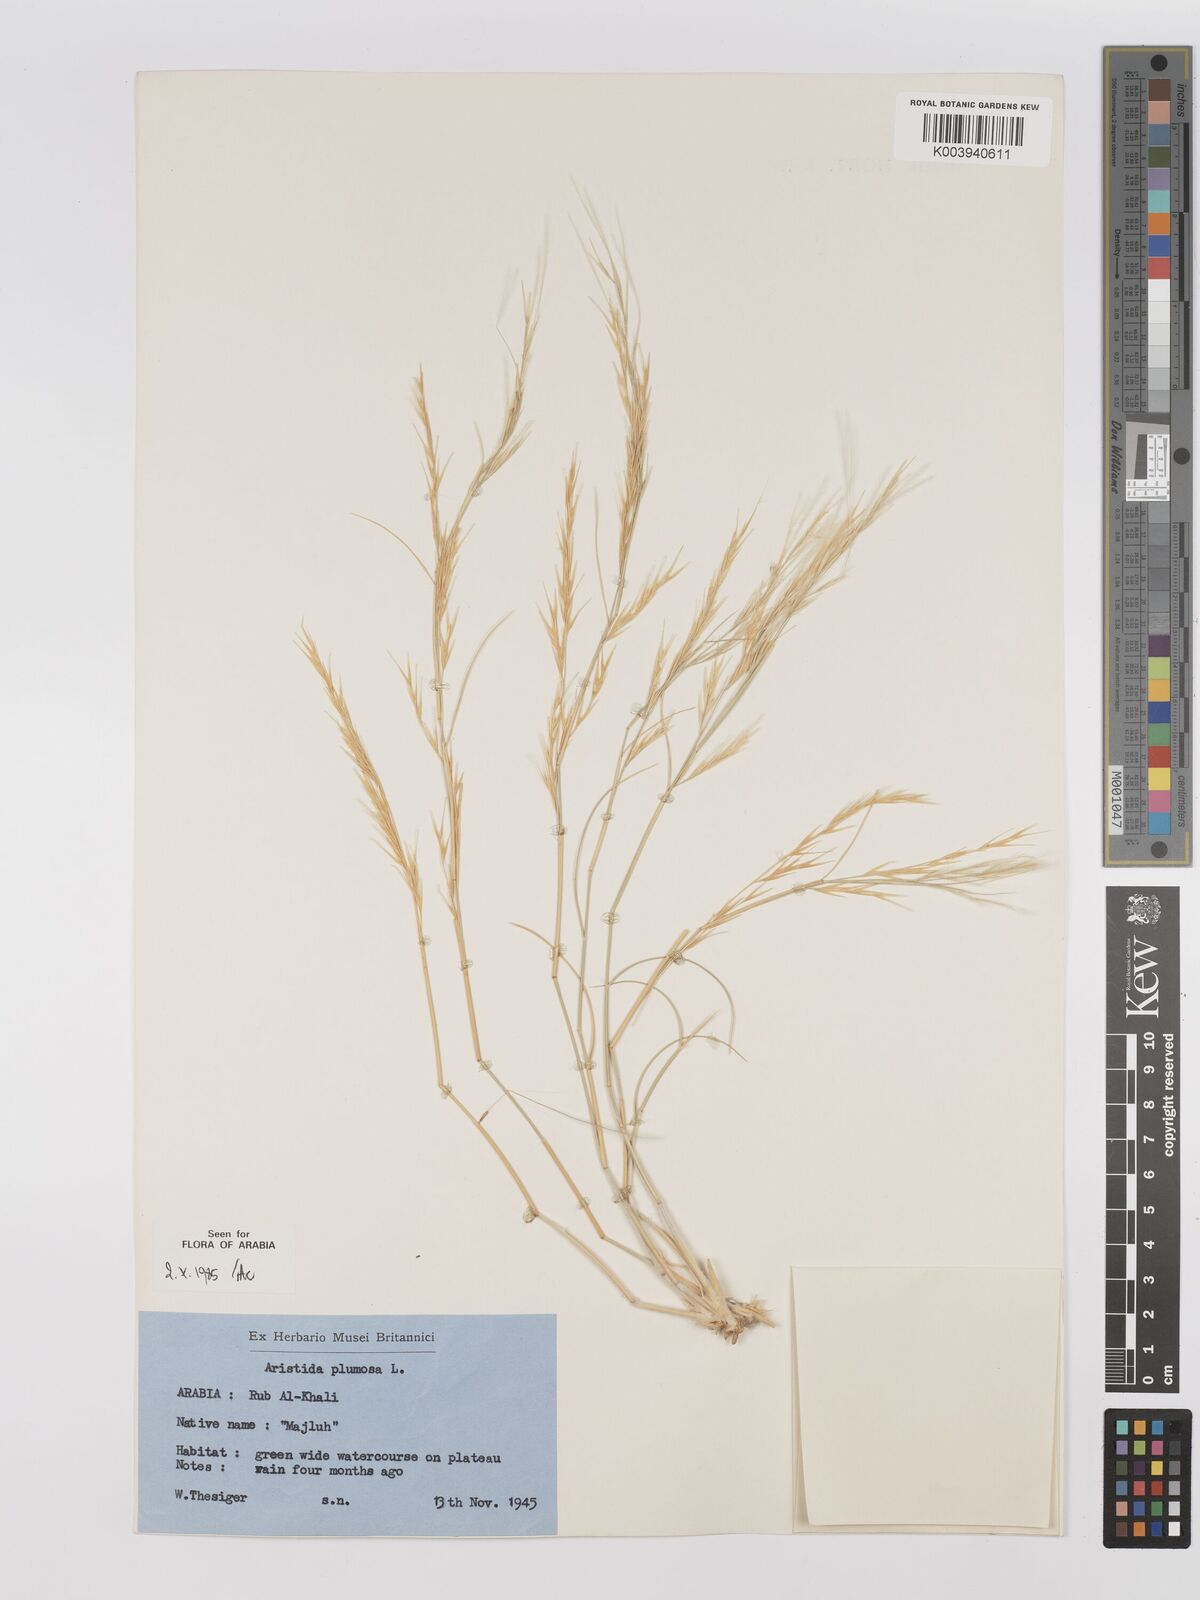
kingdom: Plantae
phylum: Tracheophyta
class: Liliopsida
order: Poales
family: Poaceae
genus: Stipagrostis
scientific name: Stipagrostis plumosa
